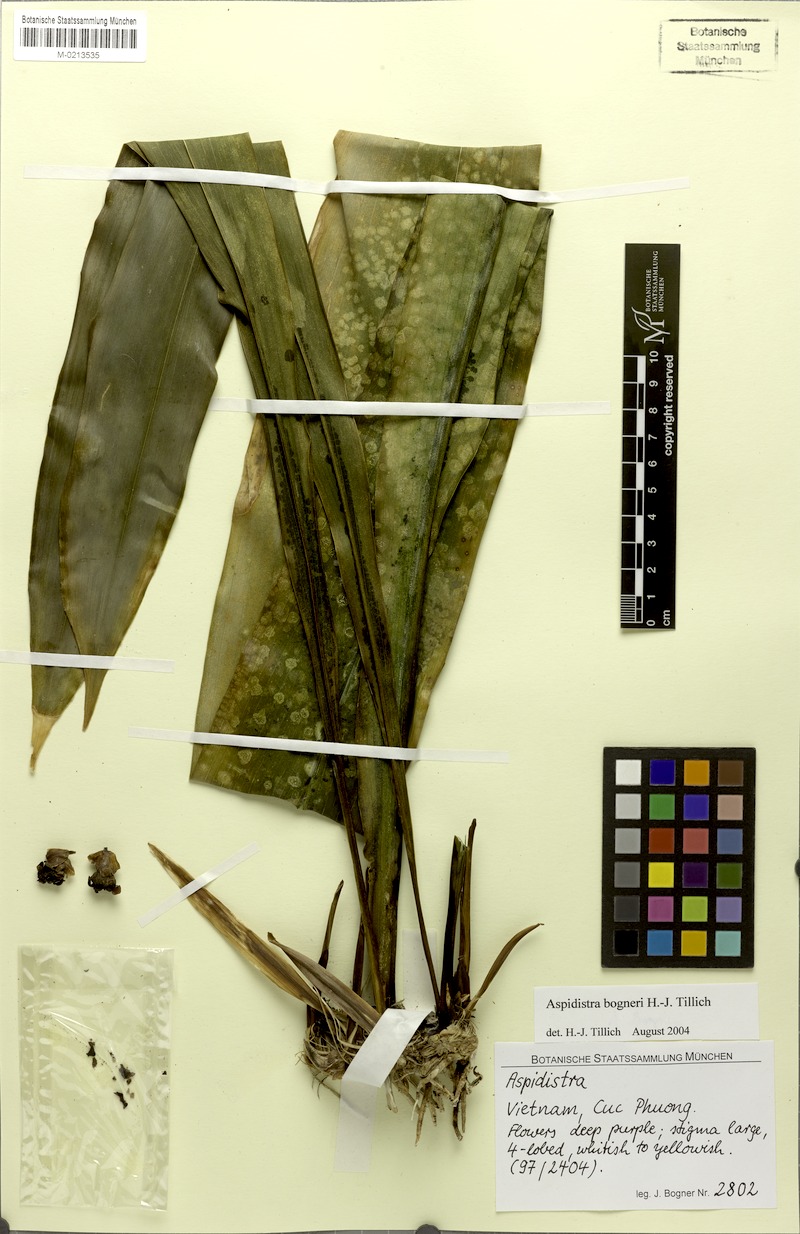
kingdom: Plantae
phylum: Tracheophyta
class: Liliopsida
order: Asparagales
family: Asparagaceae
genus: Aspidistra
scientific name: Aspidistra bogneri
